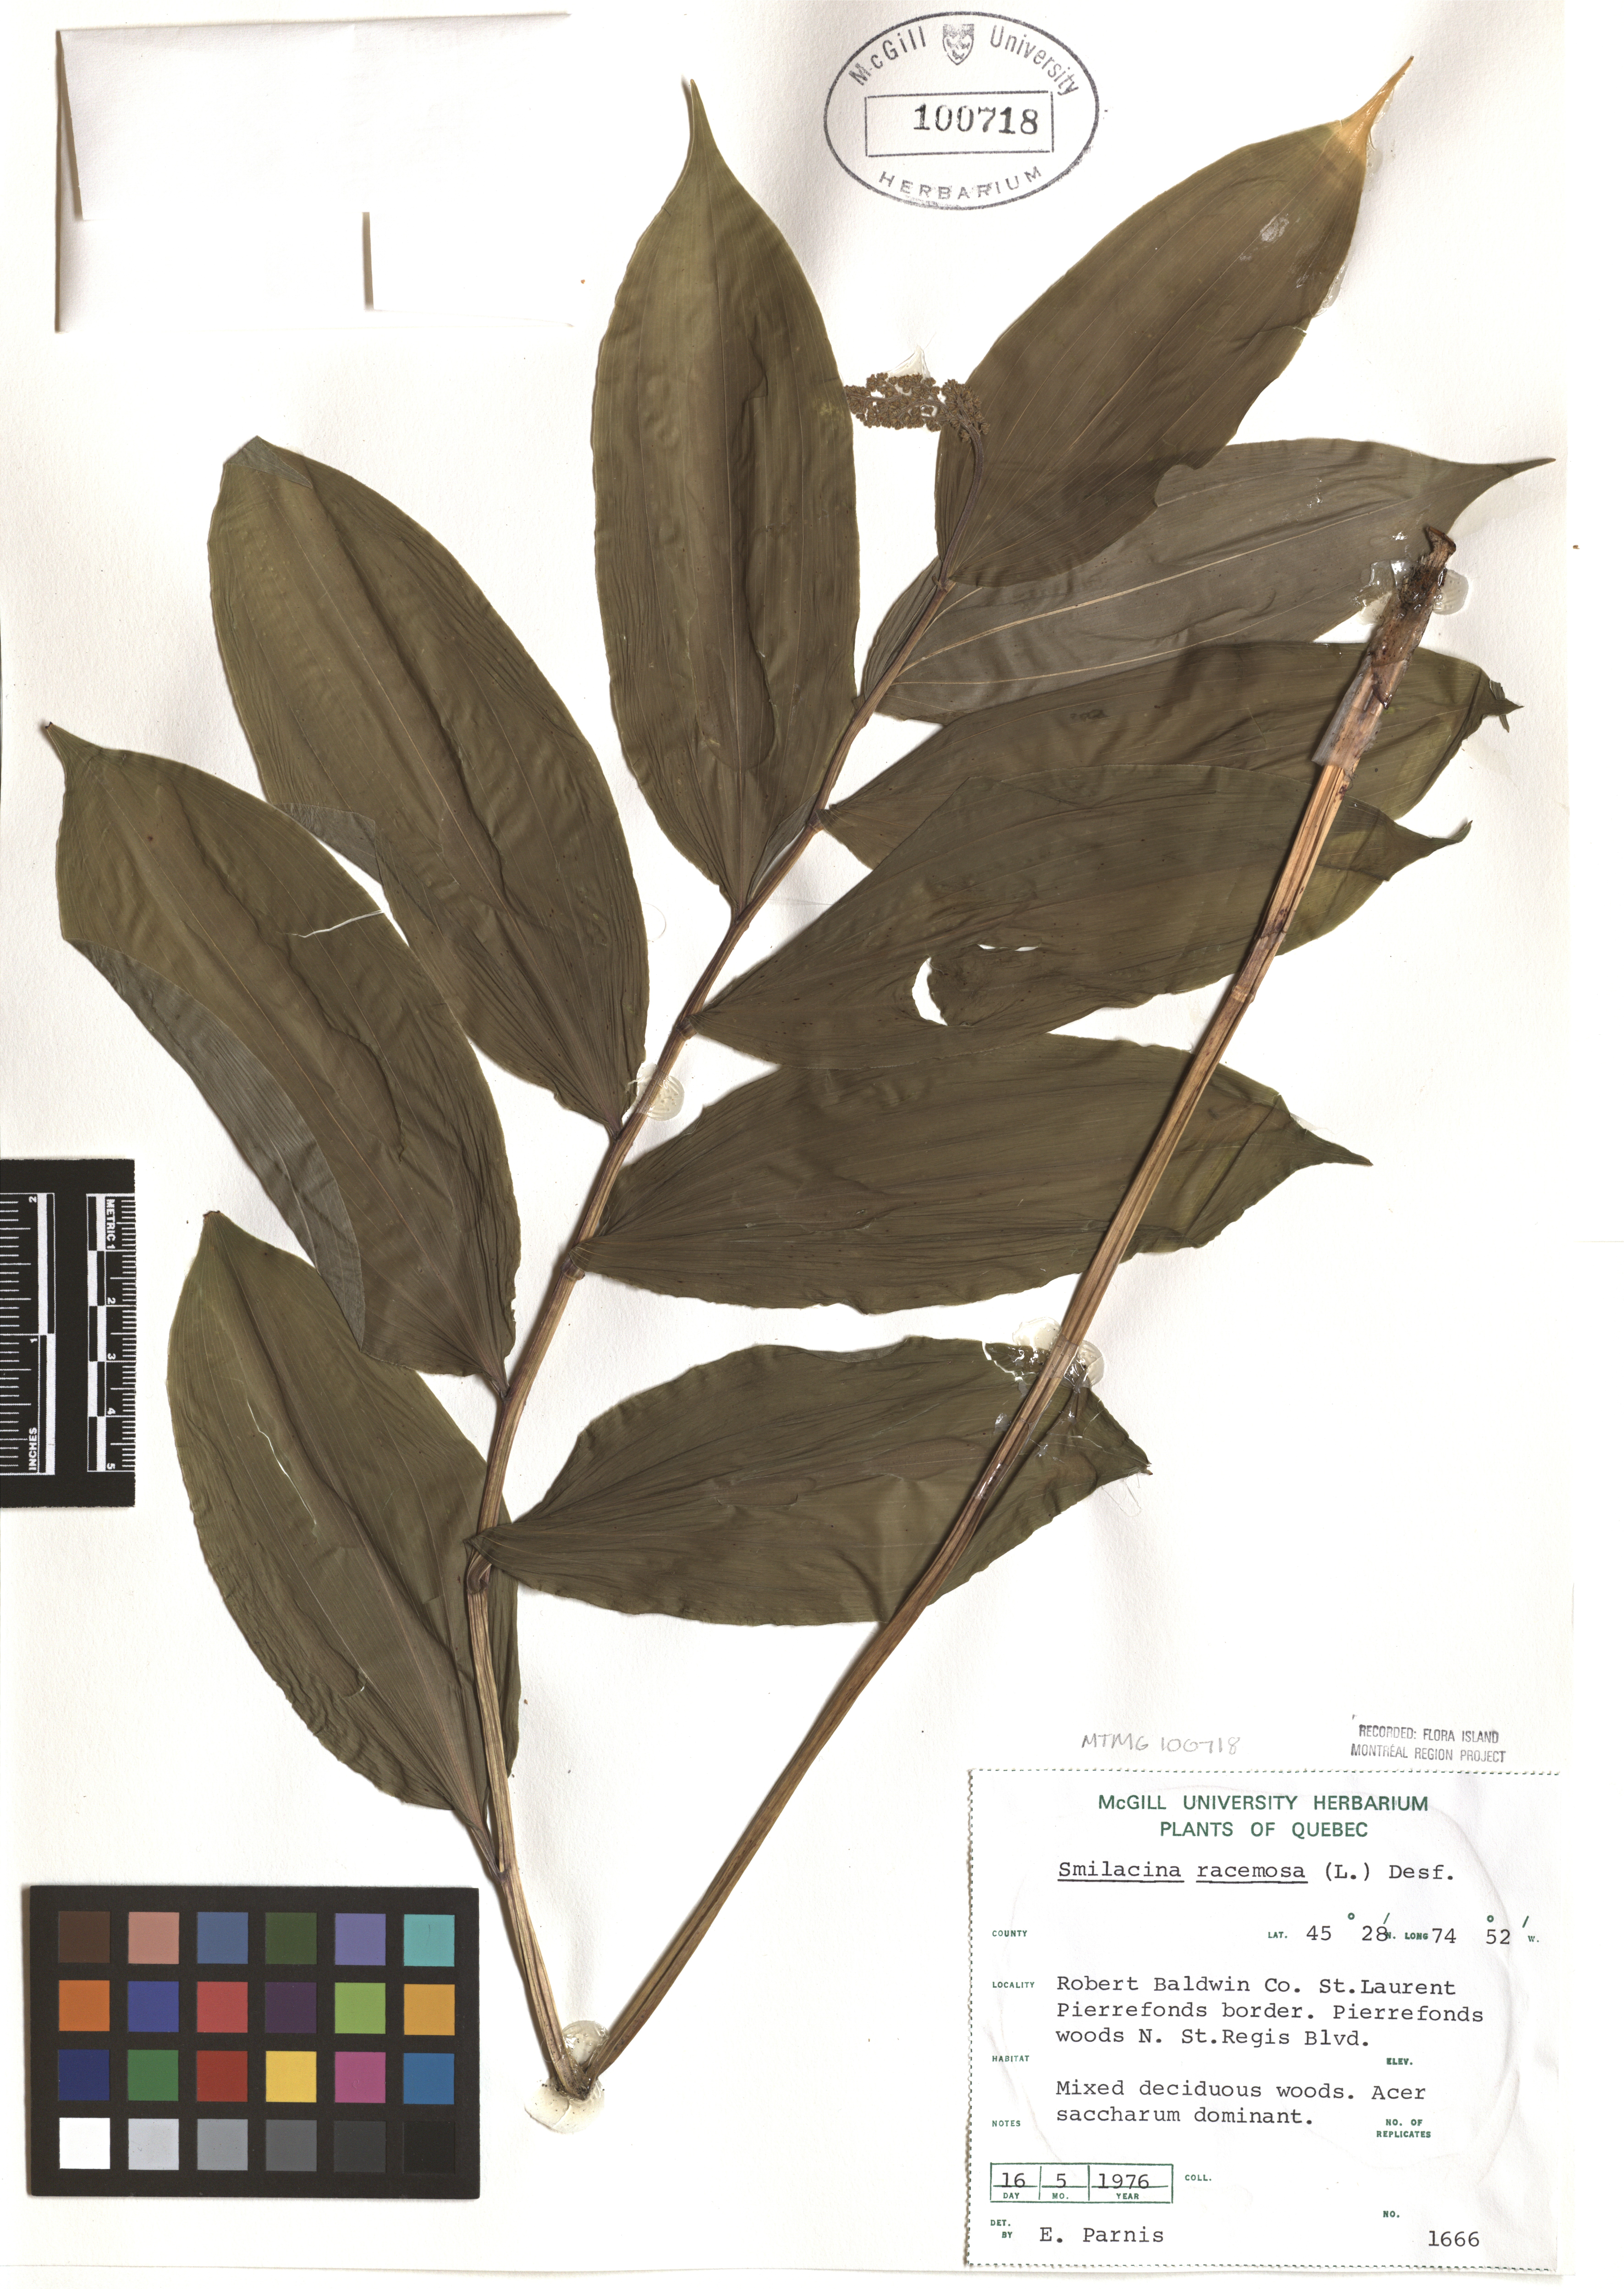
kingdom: Plantae
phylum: Tracheophyta
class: Liliopsida
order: Asparagales
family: Asparagaceae
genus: Maianthemum
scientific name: Maianthemum racemosum
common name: False spikenard
